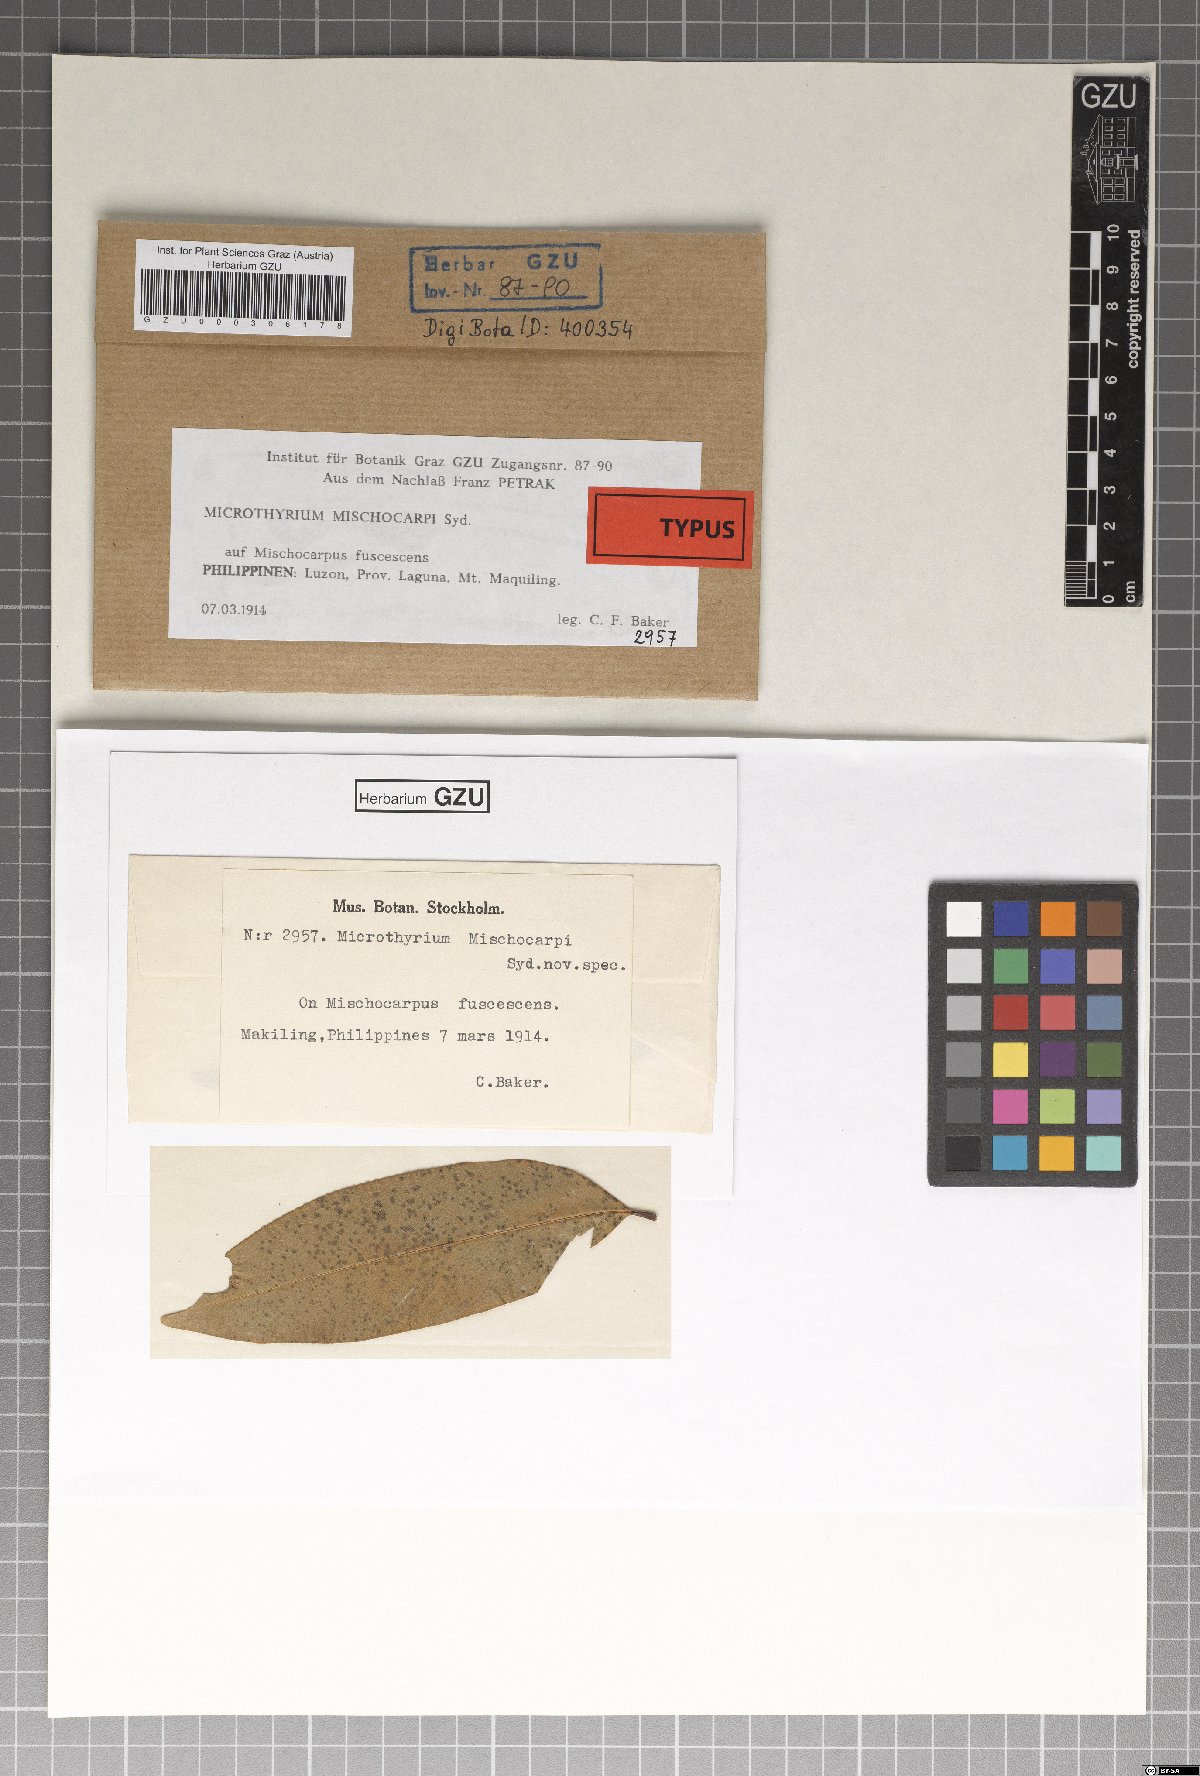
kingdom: Fungi
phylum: Ascomycota
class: Dothideomycetes
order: Microthyriales
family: Microthyriaceae
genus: Microthyrium
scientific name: Microthyrium mischocarpi
